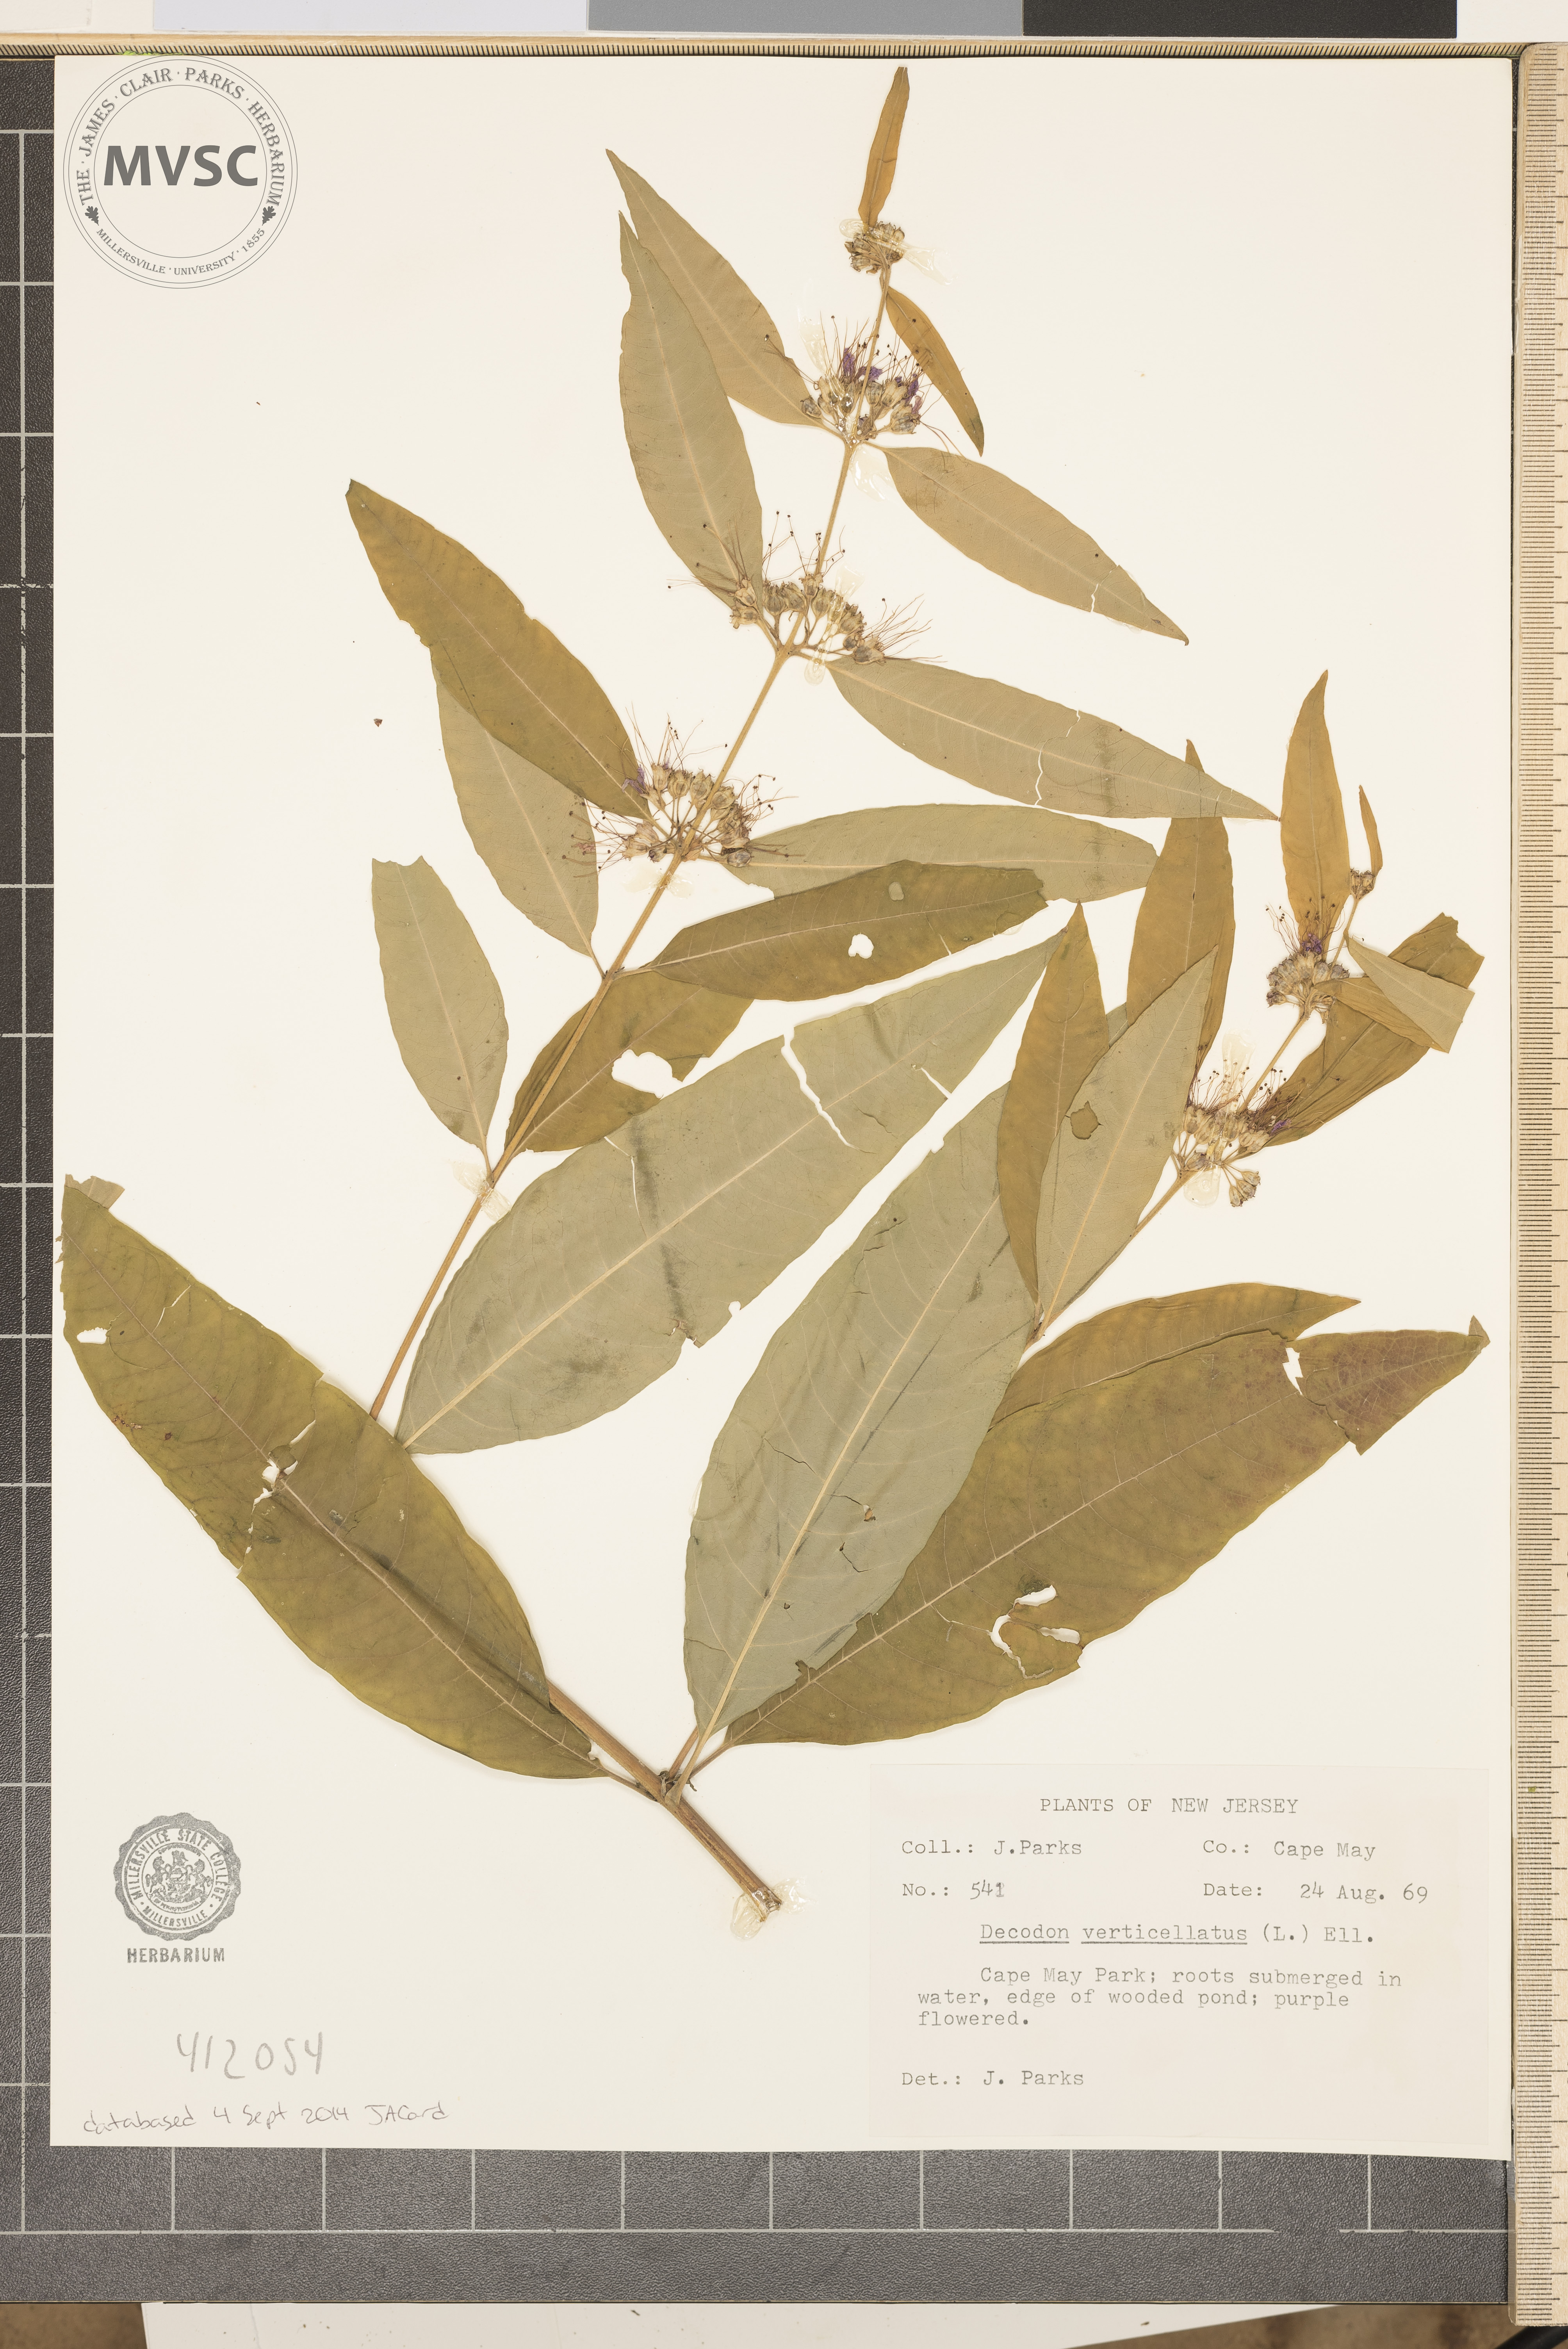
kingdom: Plantae
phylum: Tracheophyta
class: Magnoliopsida
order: Myrtales
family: Lythraceae
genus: Decodon
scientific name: Decodon verticillatus
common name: Hairy swamp loosestrife
